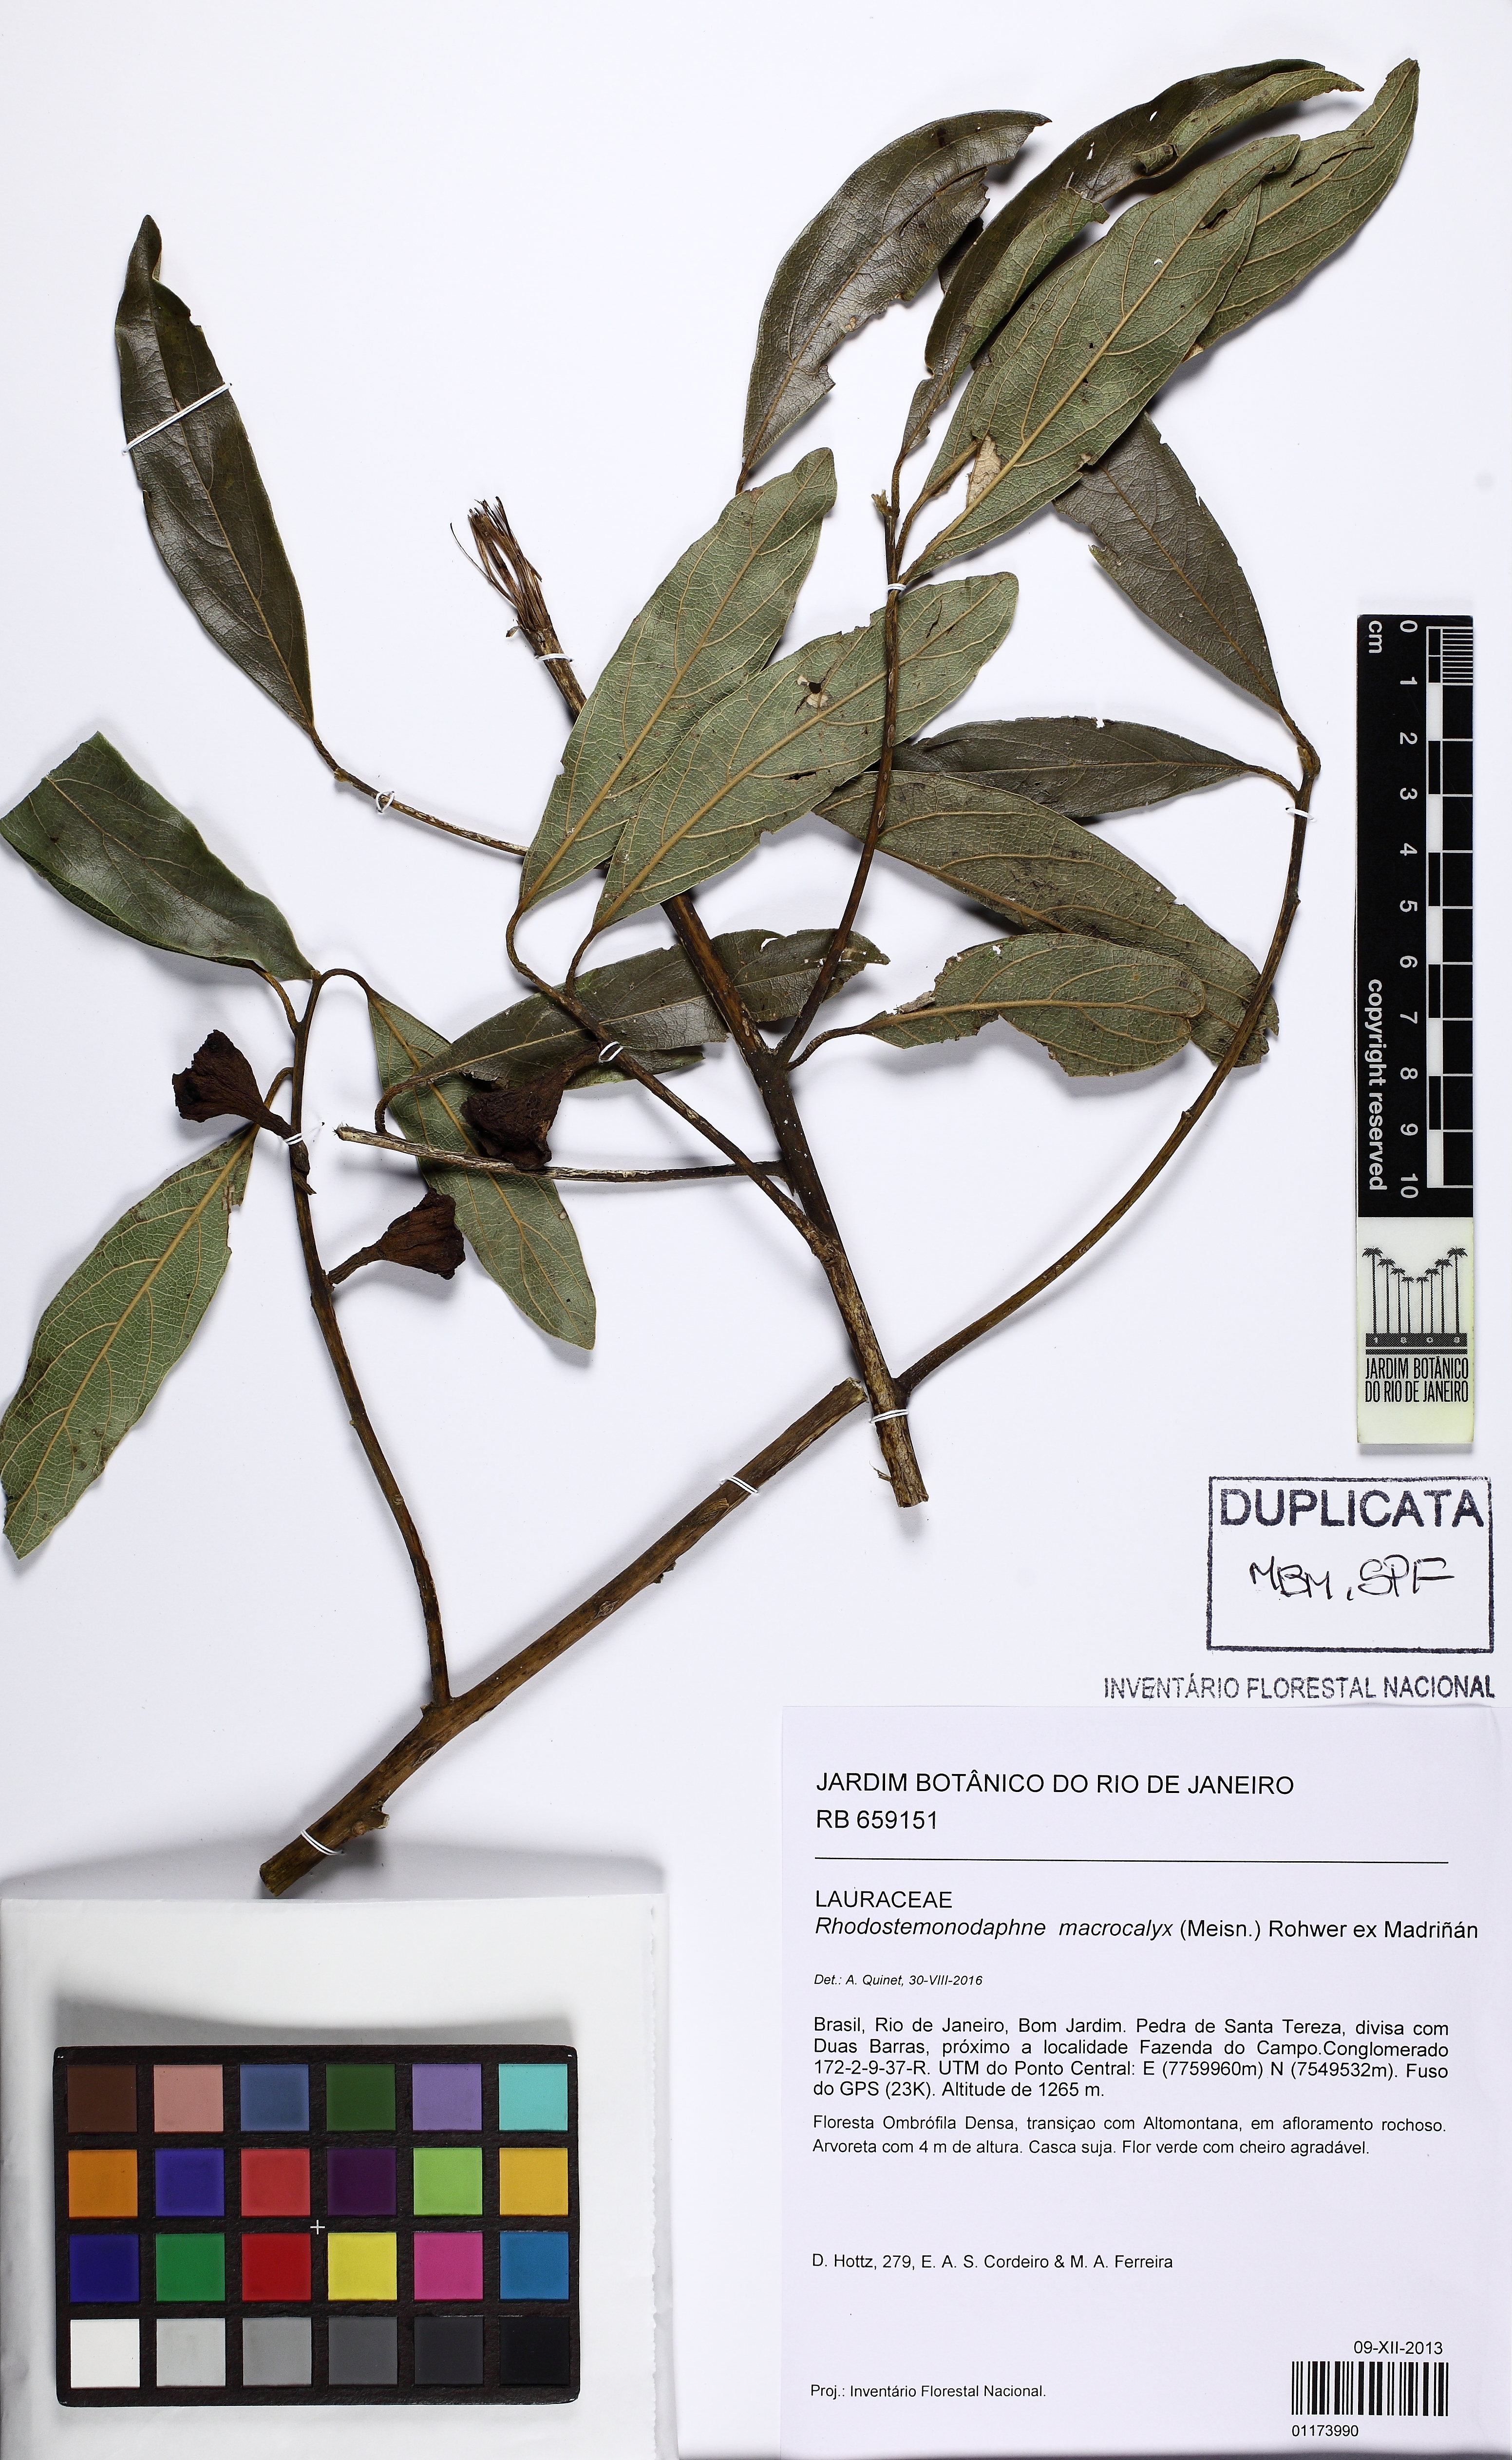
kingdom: Plantae
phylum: Tracheophyta
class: Magnoliopsida
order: Laurales
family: Lauraceae
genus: Rhodostemonodaphne
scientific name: Rhodostemonodaphne macrocalyx
